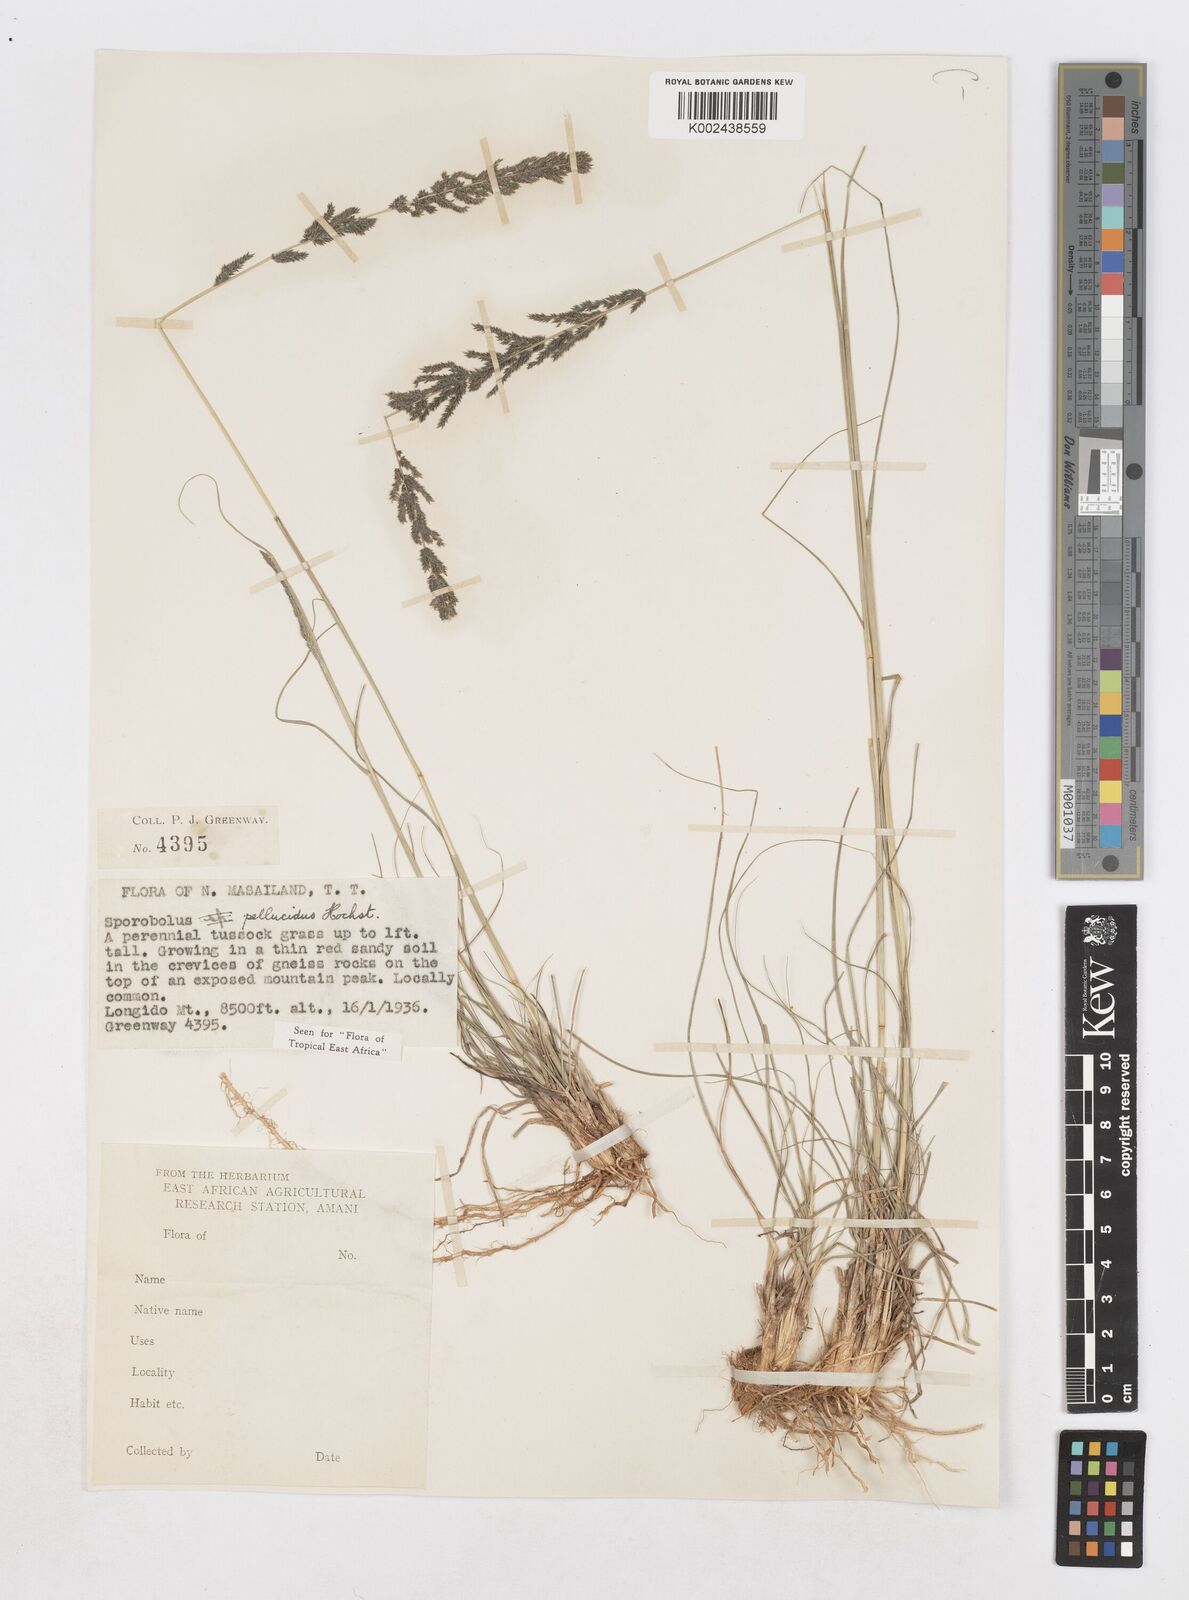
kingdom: Plantae
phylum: Tracheophyta
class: Liliopsida
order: Poales
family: Poaceae
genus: Sporobolus
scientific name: Sporobolus pellucidus
